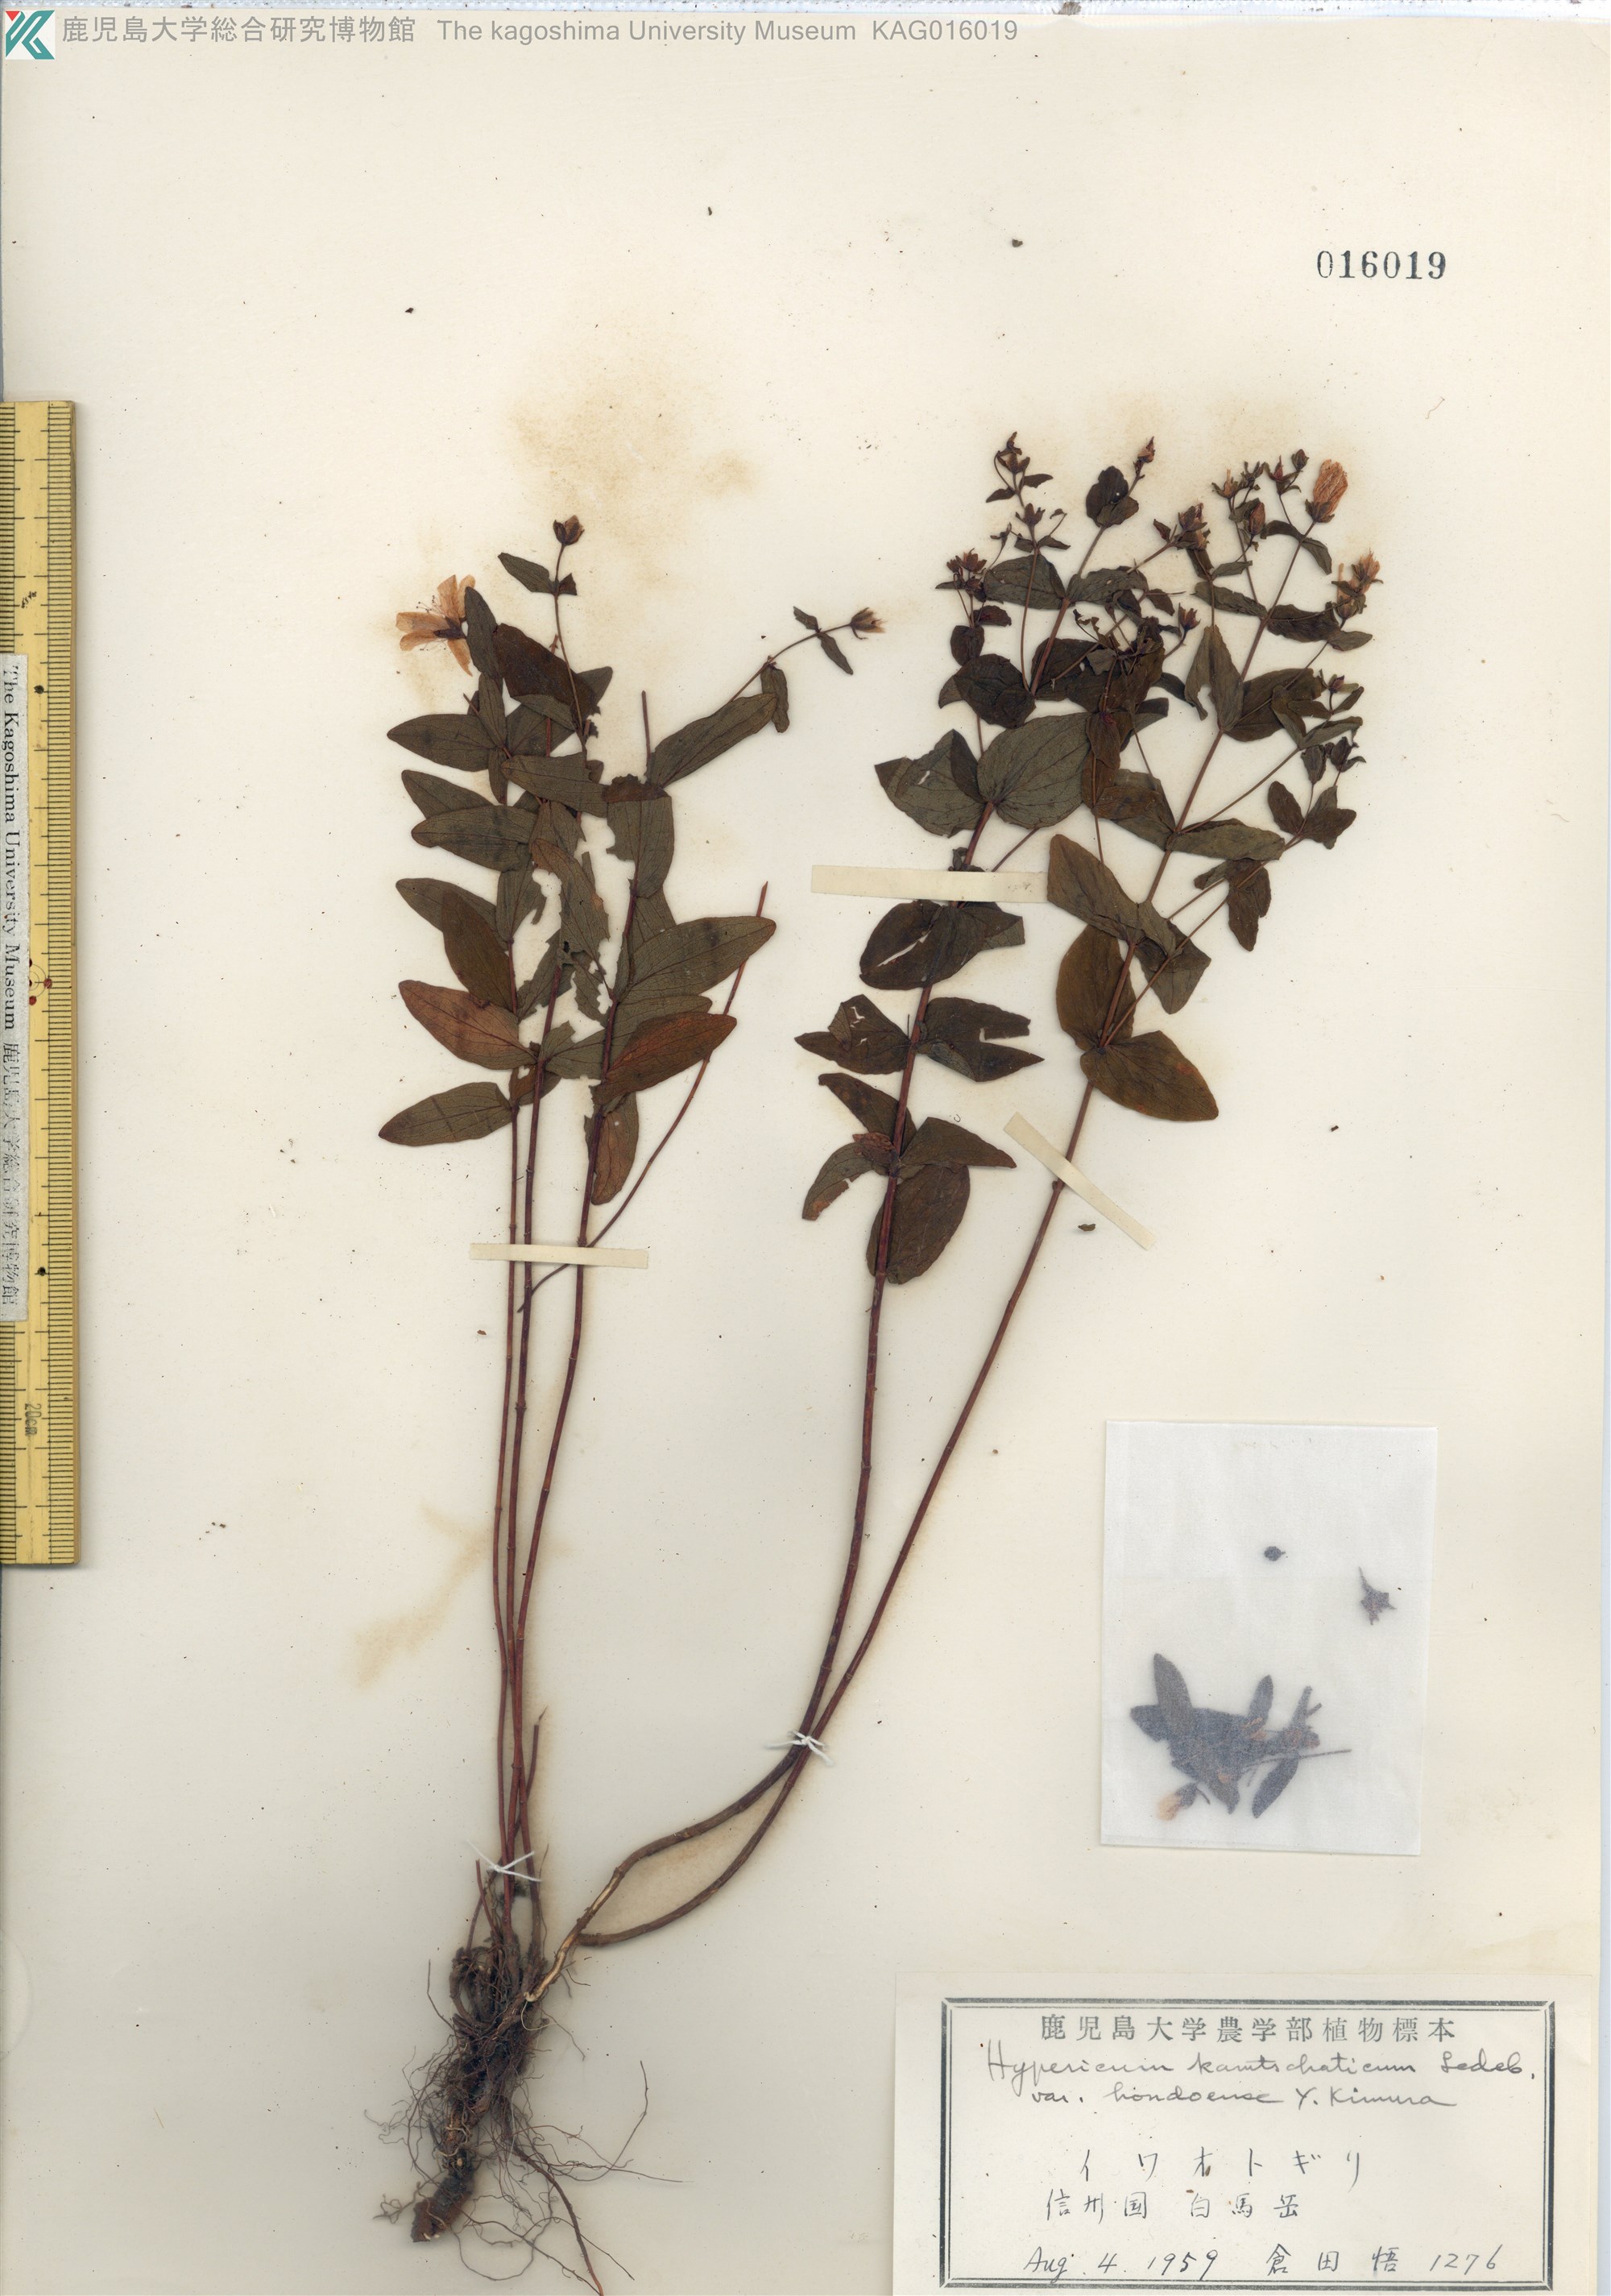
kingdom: Plantae
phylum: Tracheophyta
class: Magnoliopsida
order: Malpighiales
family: Hypericaceae
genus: Hypericum
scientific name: Hypericum kamtschaticum
